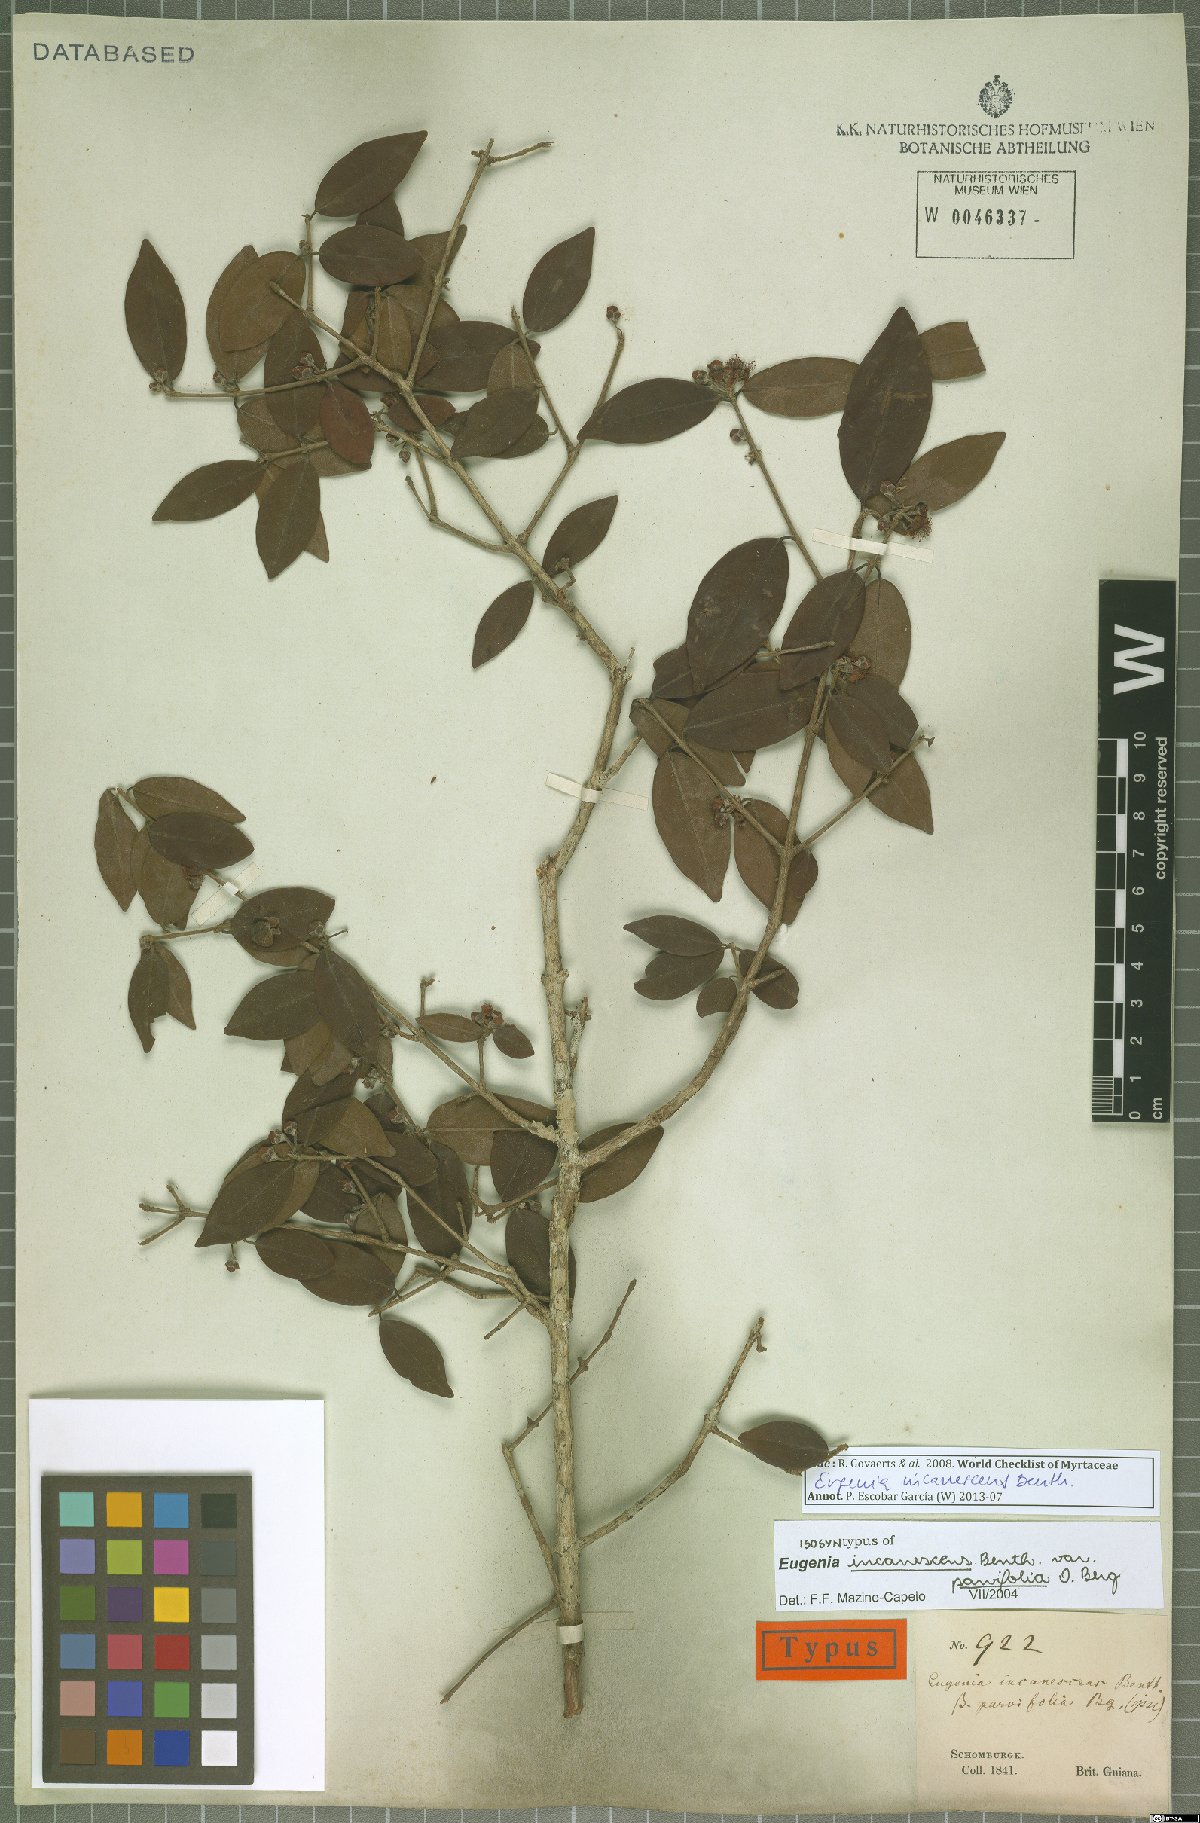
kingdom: Plantae
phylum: Tracheophyta
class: Magnoliopsida
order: Myrtales
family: Myrtaceae
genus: Eugenia
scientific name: Eugenia incanescens
